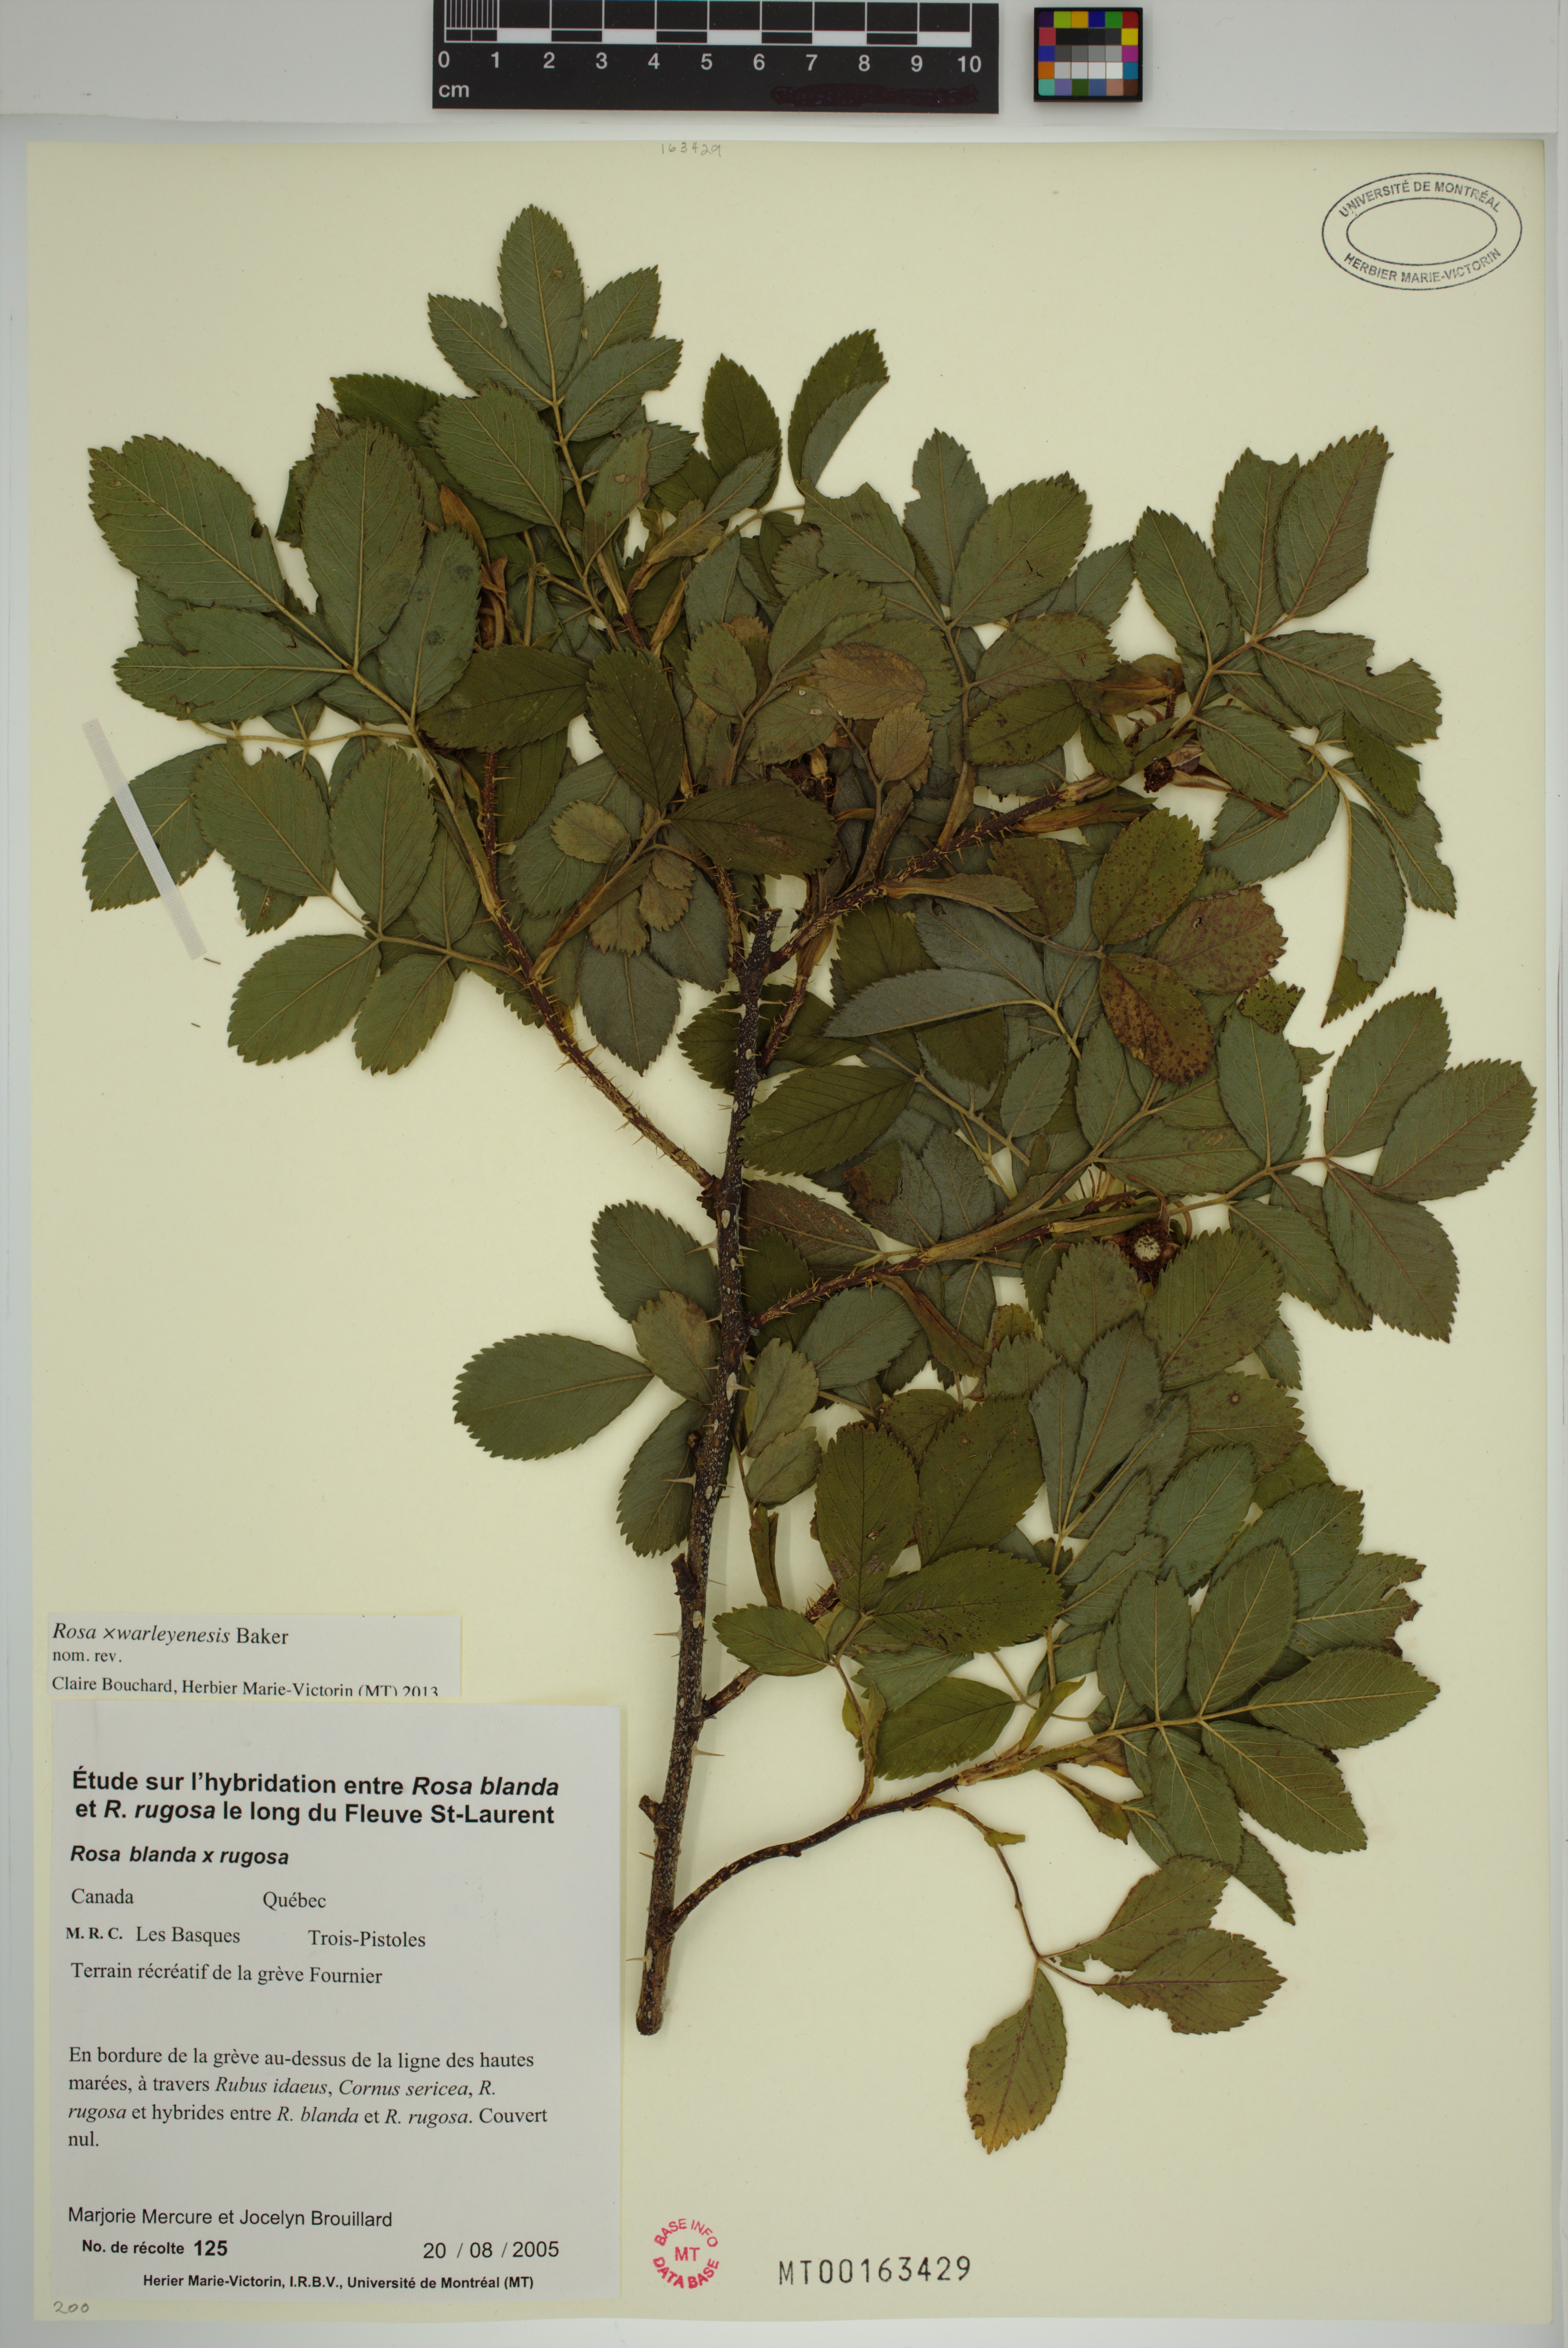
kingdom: Plantae
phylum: Tracheophyta
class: Magnoliopsida
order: Rosales
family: Rosaceae
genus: Rosa
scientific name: Rosa warleyensis
